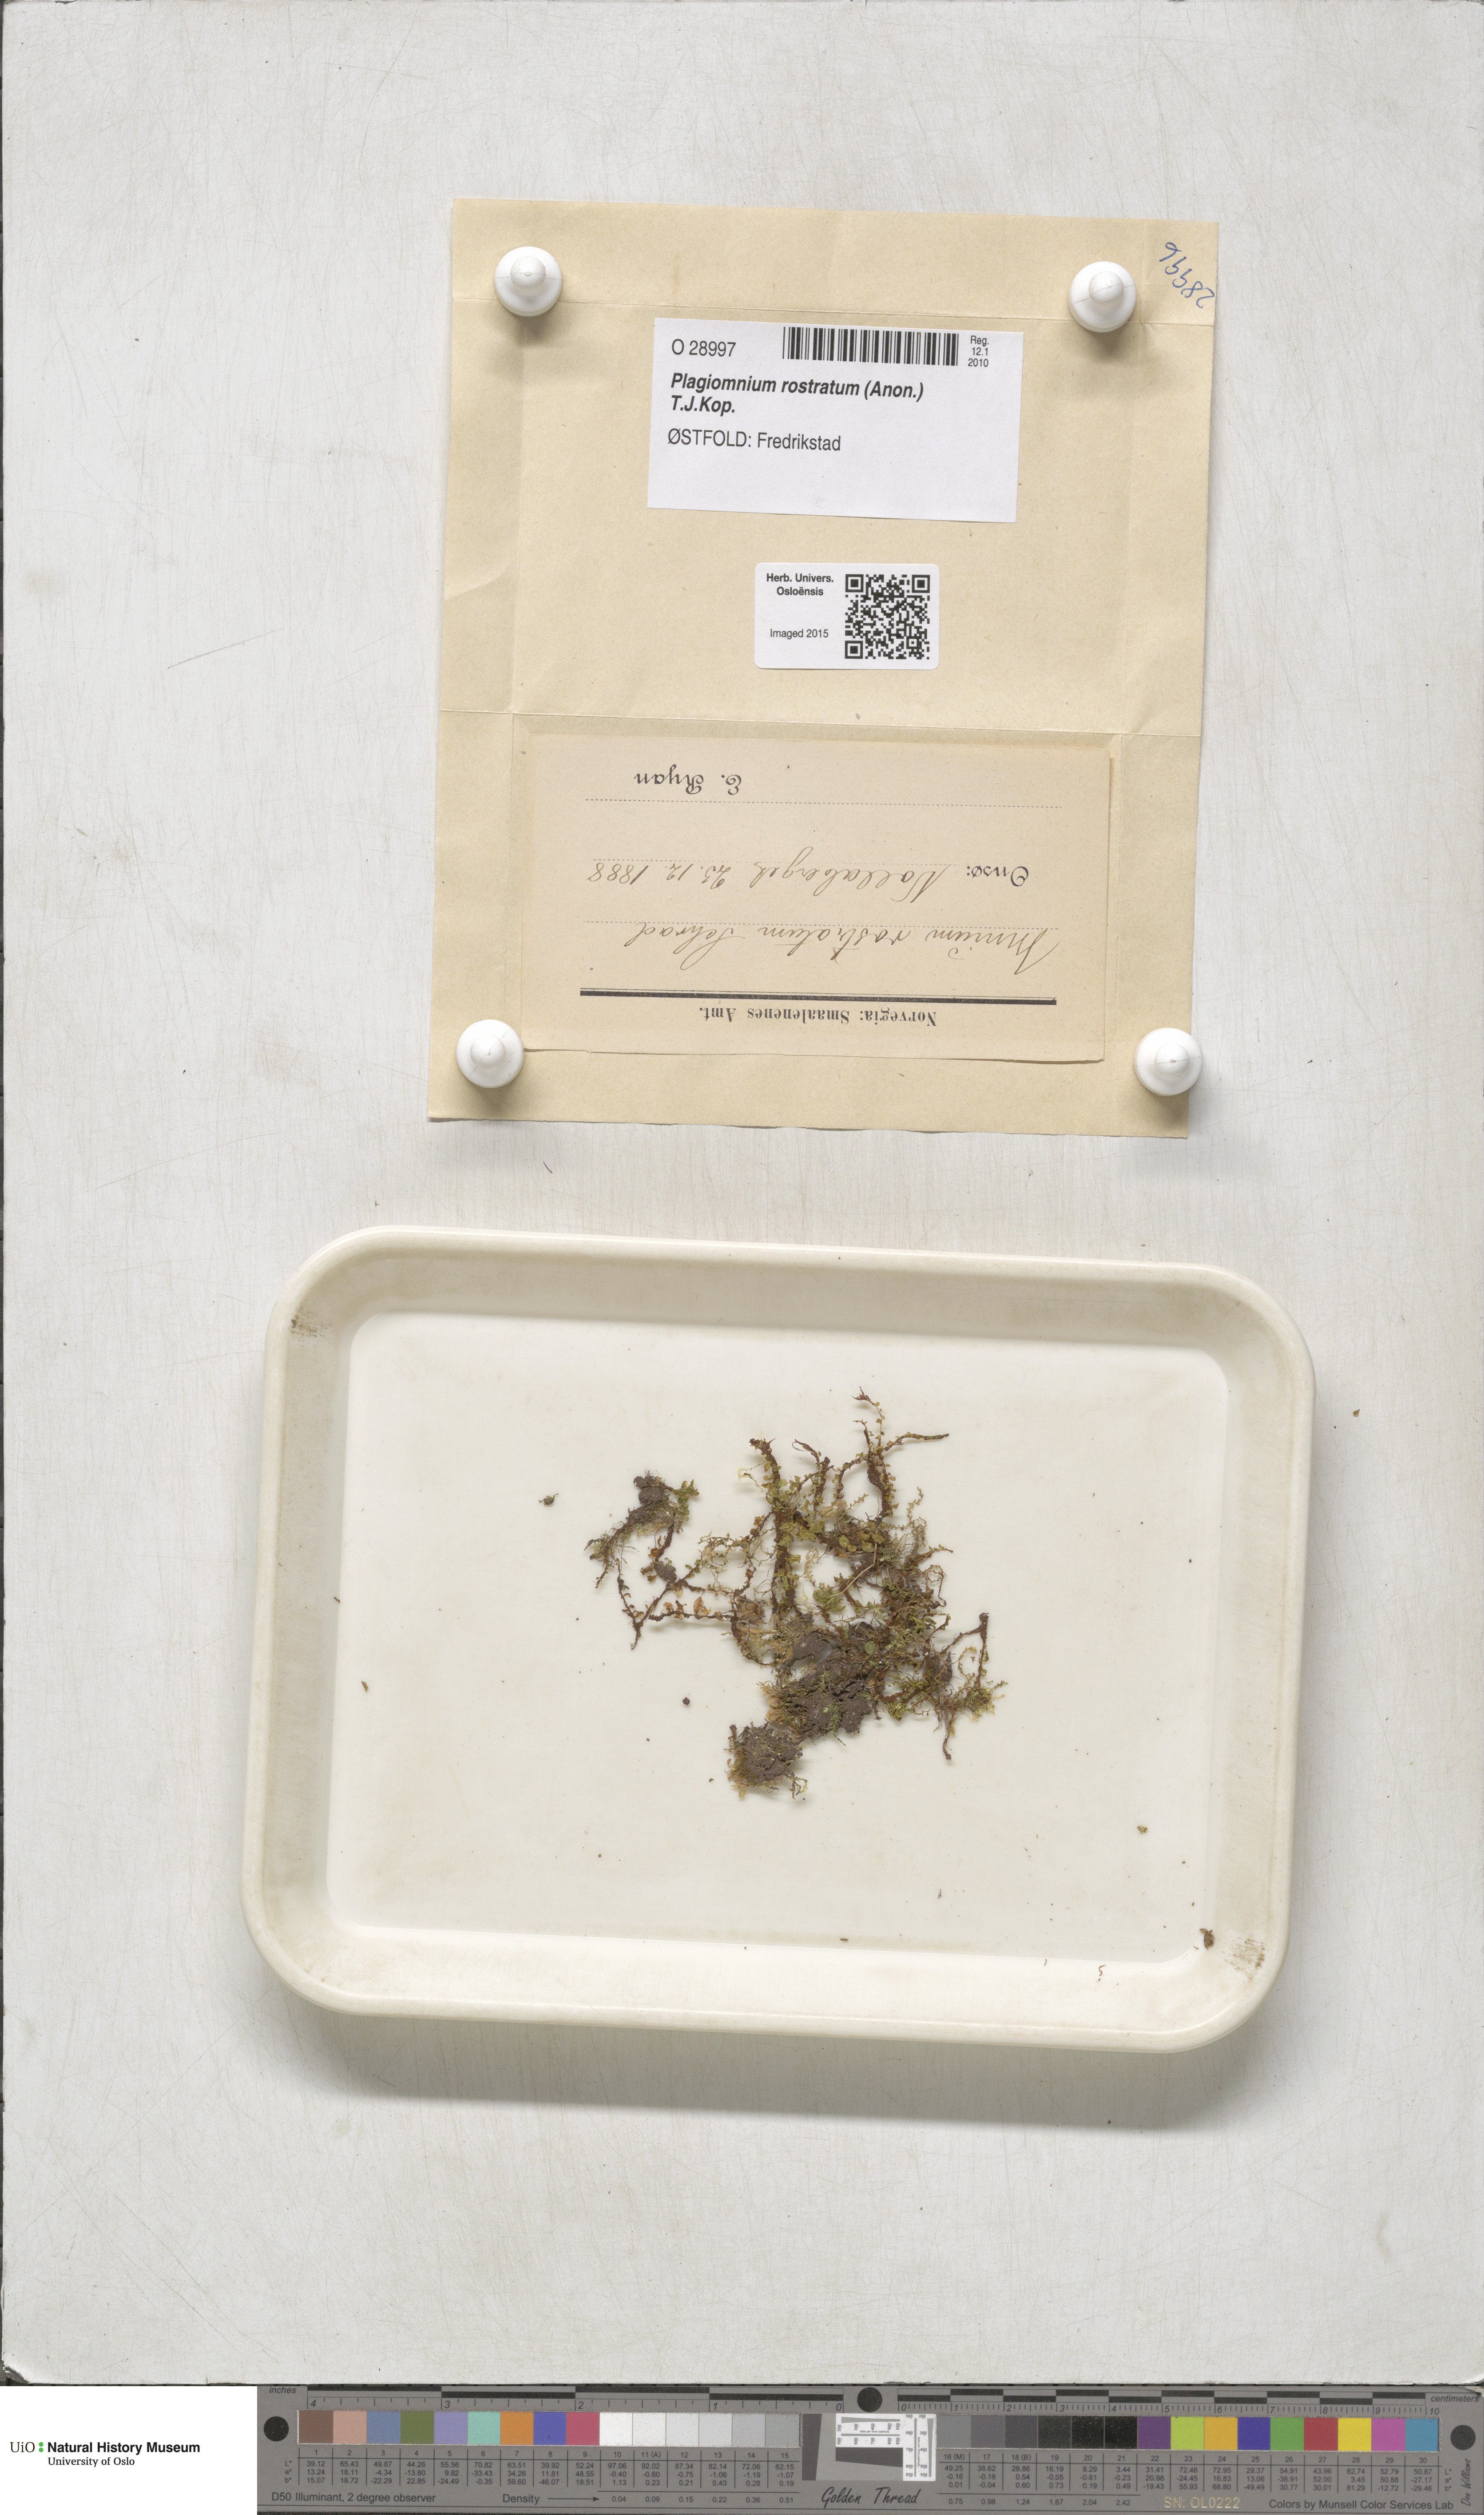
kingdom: Plantae
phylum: Bryophyta
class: Bryopsida
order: Bryales
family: Mniaceae
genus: Plagiomnium
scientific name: Plagiomnium rostratum
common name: Long-beaked leafy moss
